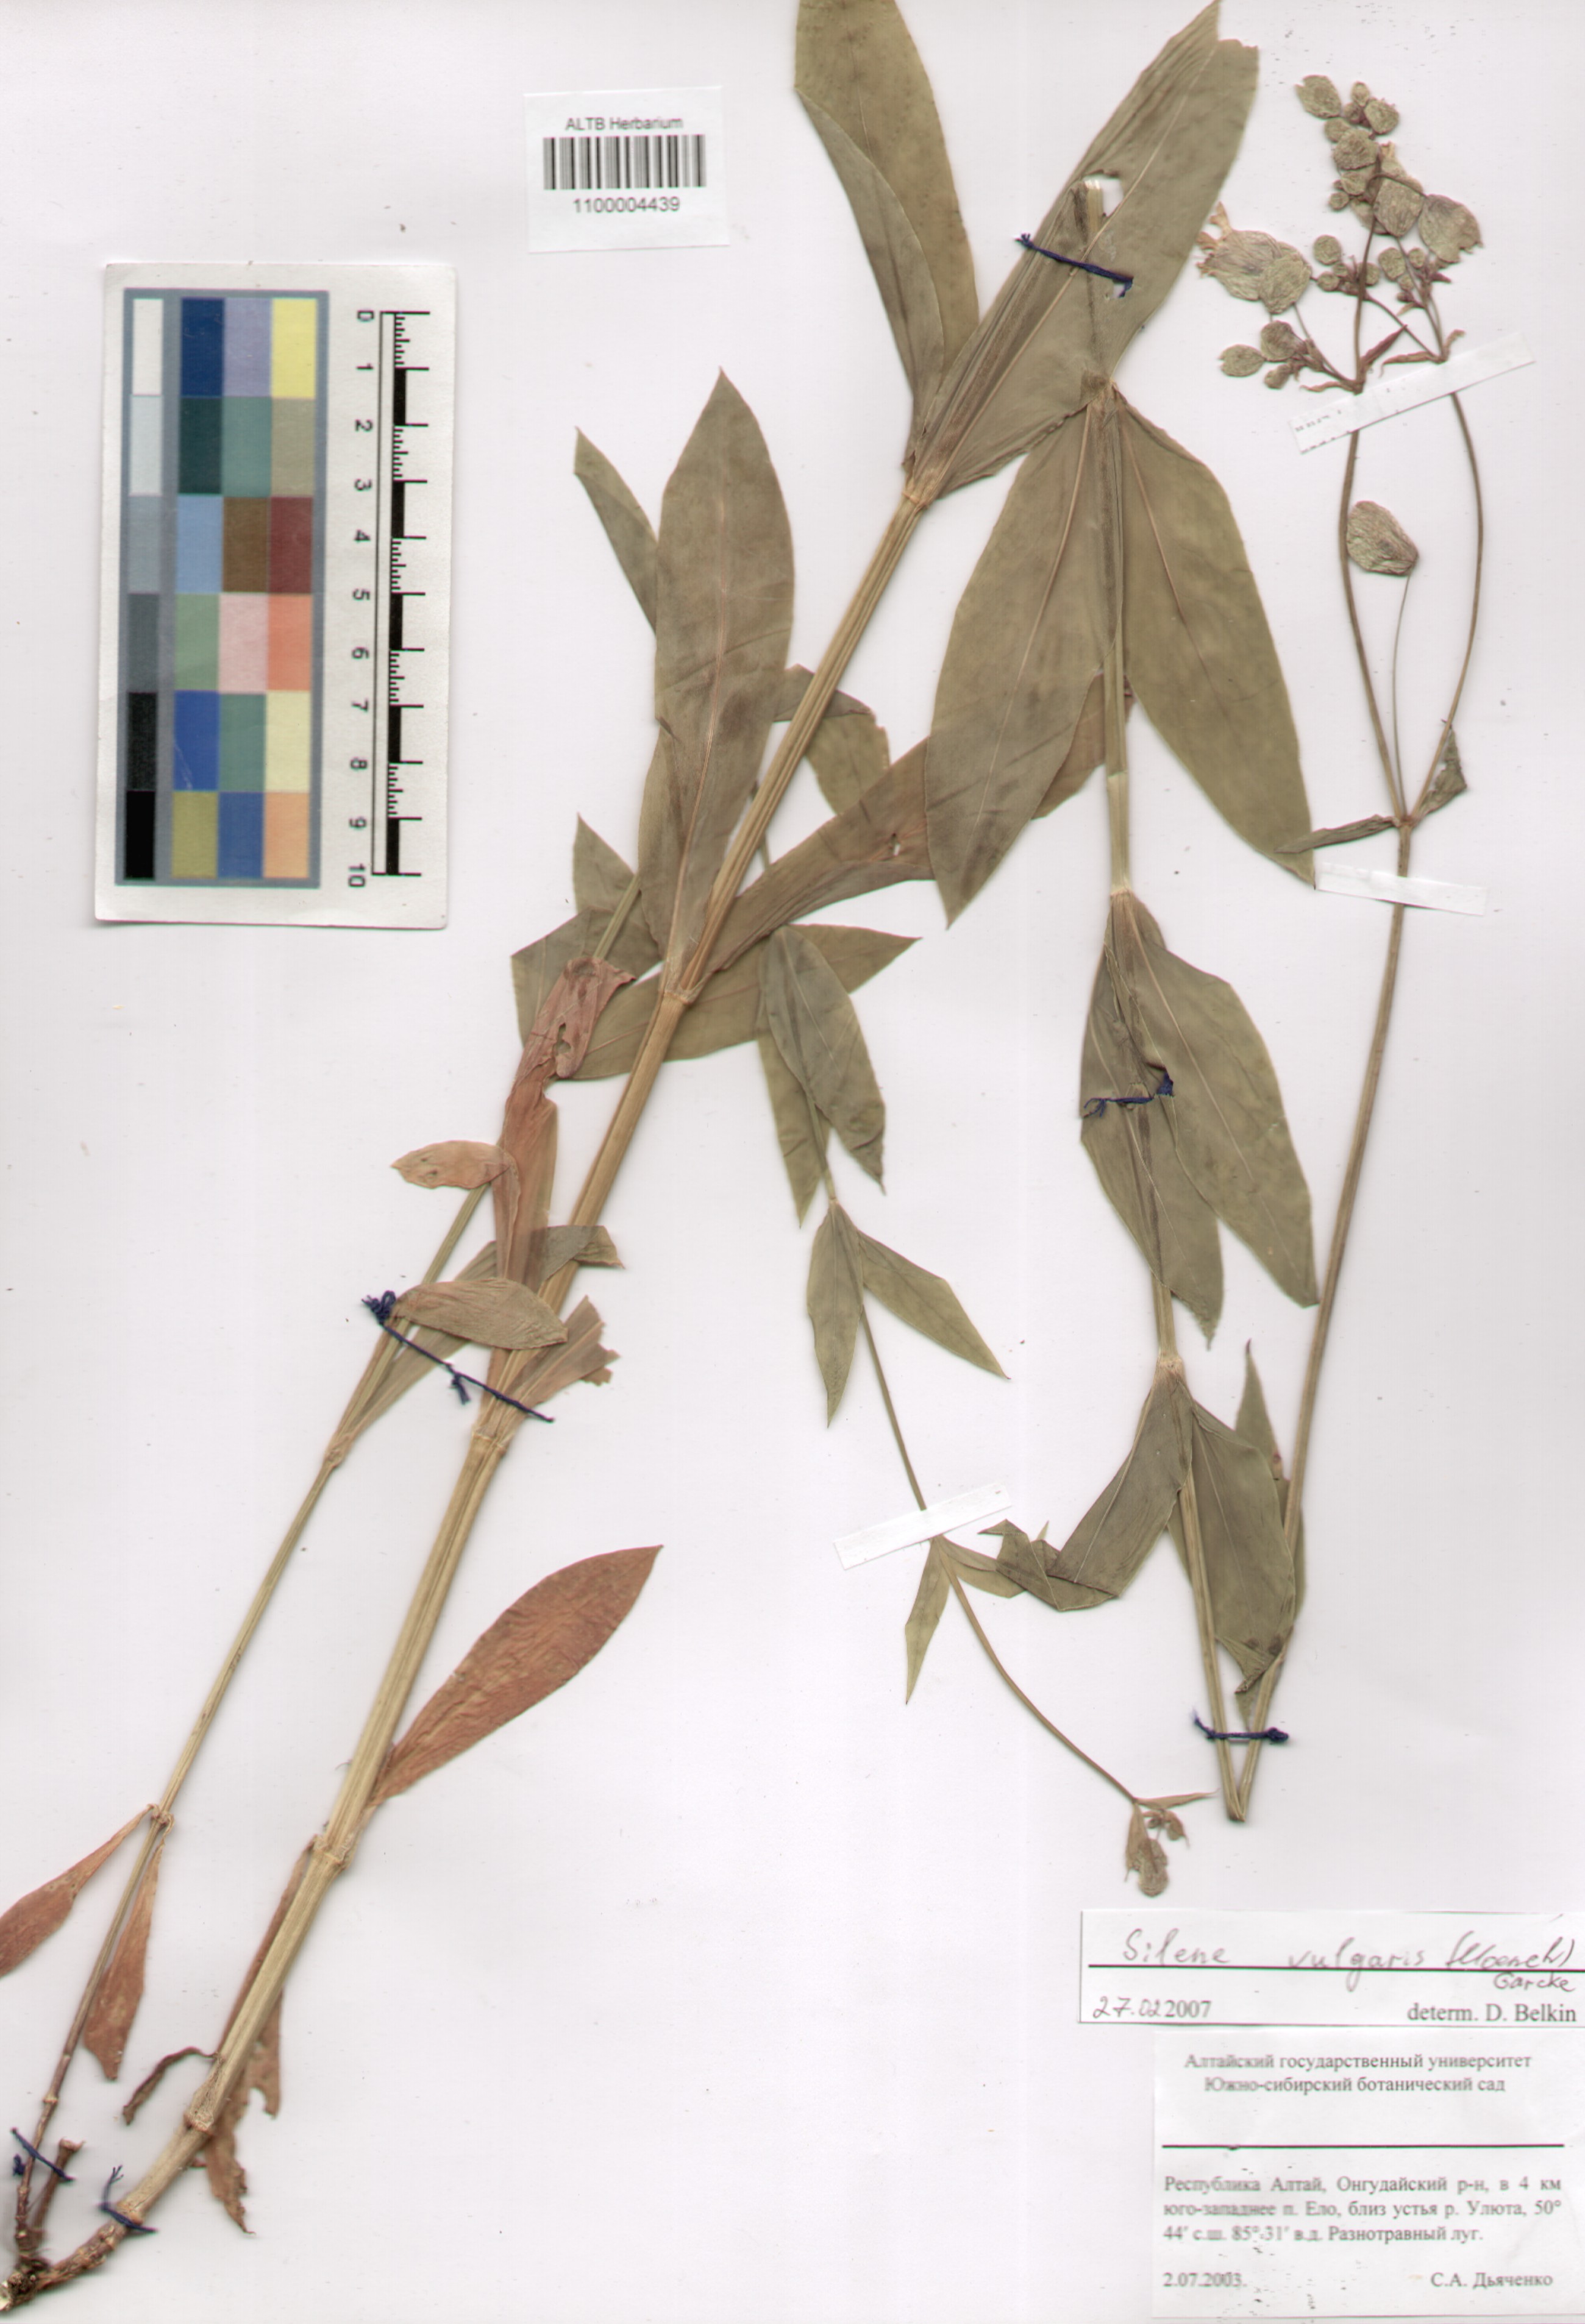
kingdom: Plantae
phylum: Tracheophyta
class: Magnoliopsida
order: Caryophyllales
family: Caryophyllaceae
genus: Silene
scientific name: Silene vulgaris
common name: Bladder campion
